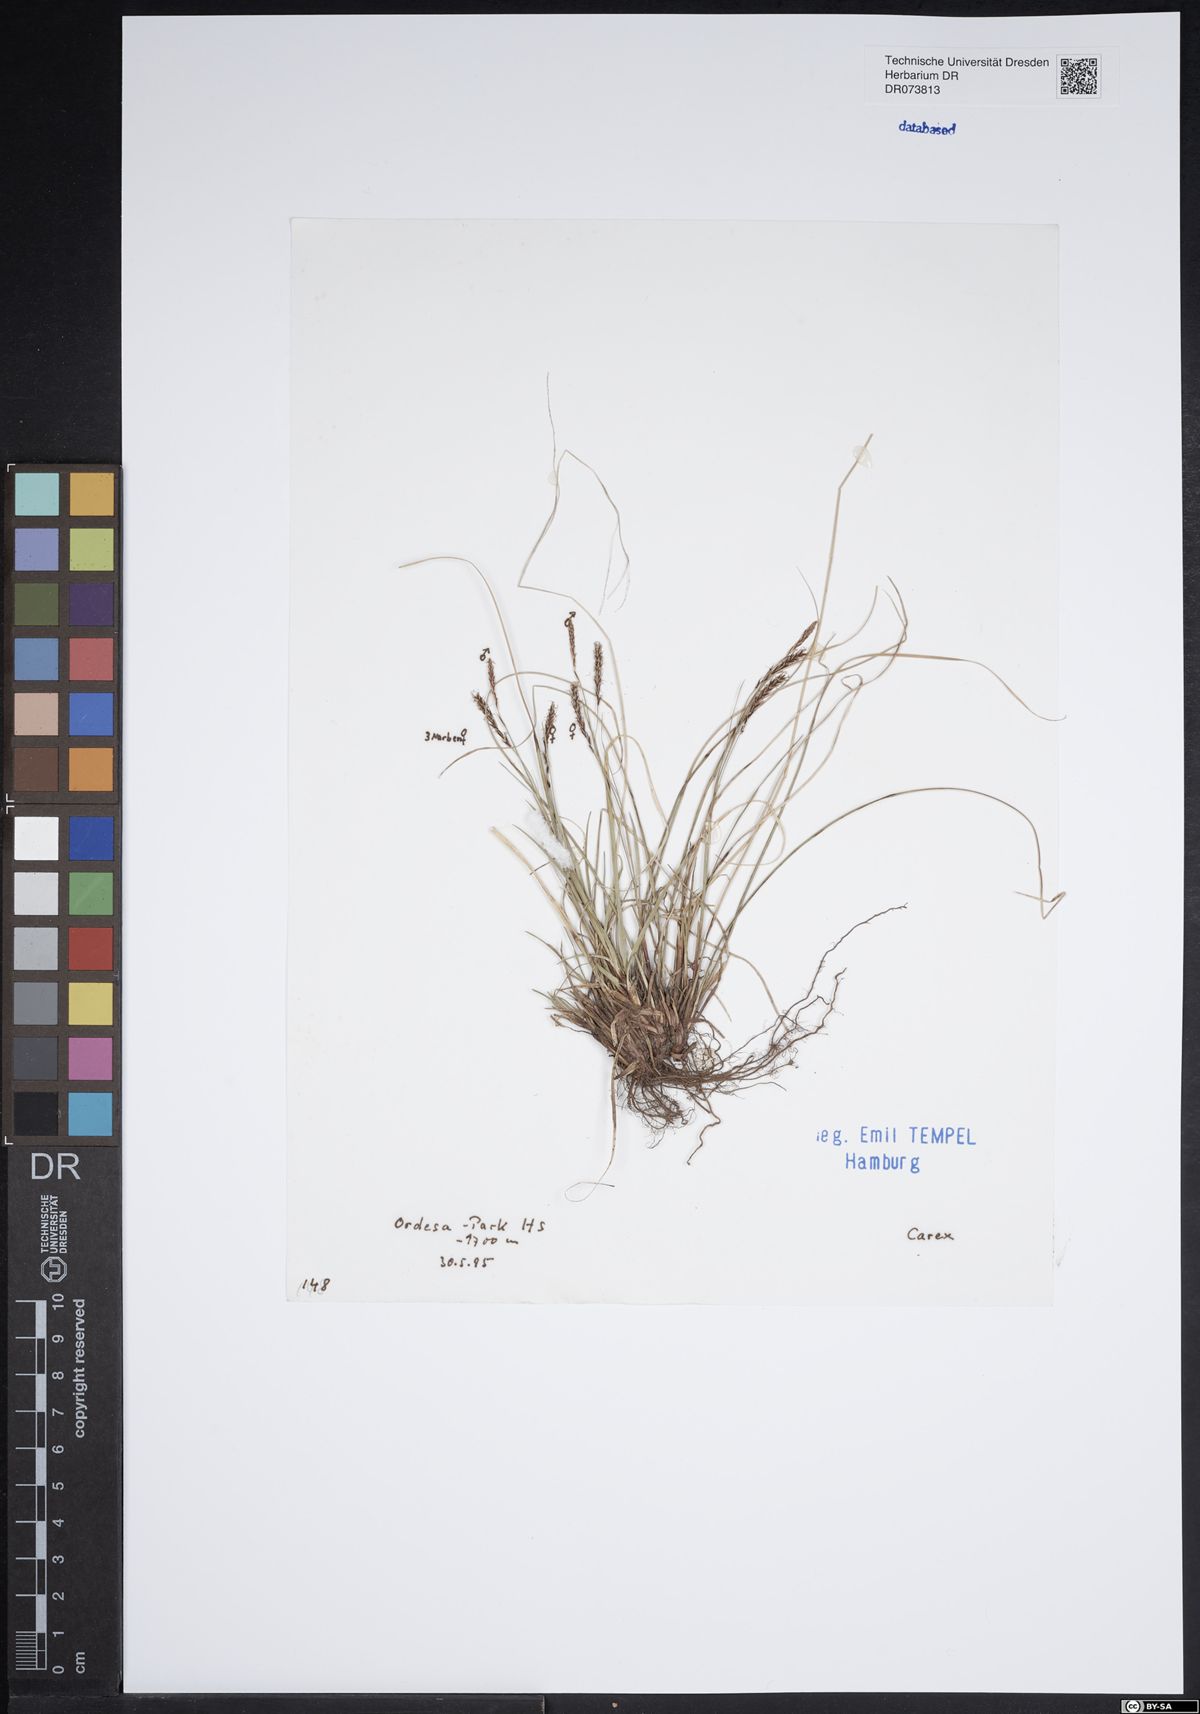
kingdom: Plantae
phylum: Tracheophyta
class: Liliopsida
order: Poales
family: Cyperaceae
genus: Carex
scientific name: Carex
